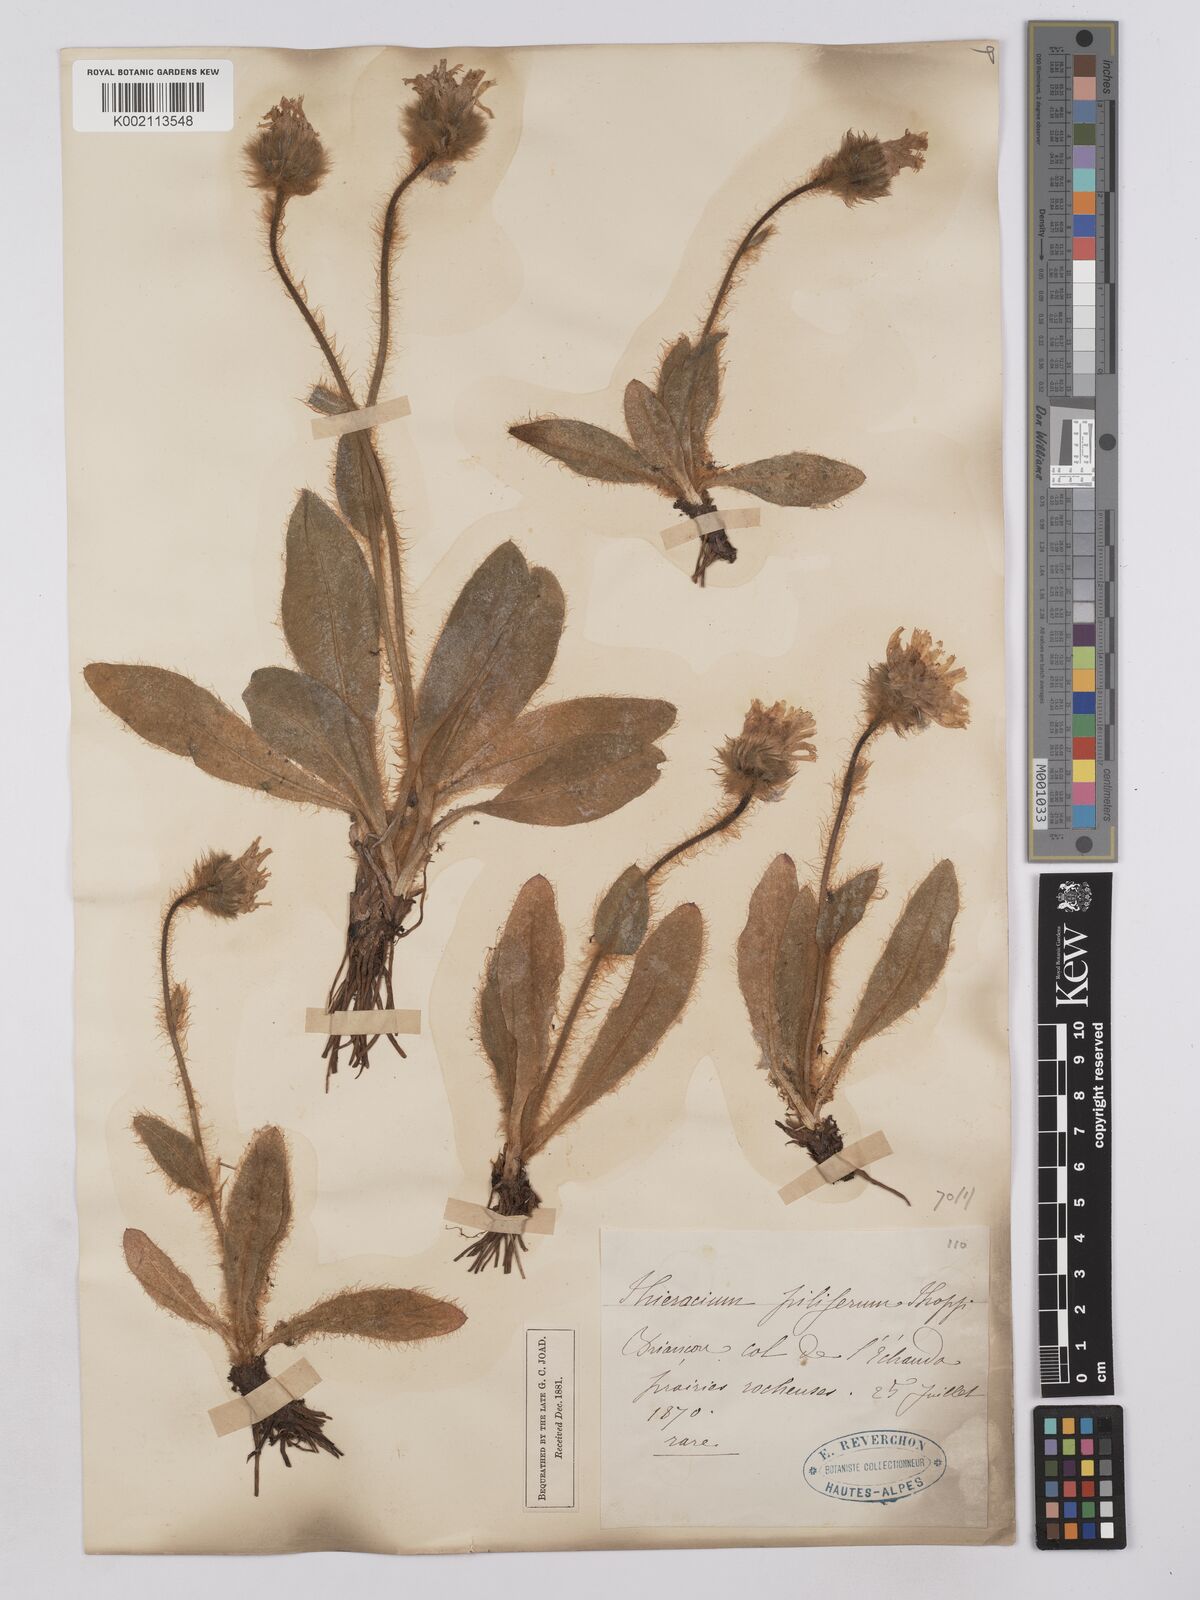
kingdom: Plantae
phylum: Tracheophyta
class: Magnoliopsida
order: Asterales
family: Asteraceae
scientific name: Asteraceae
